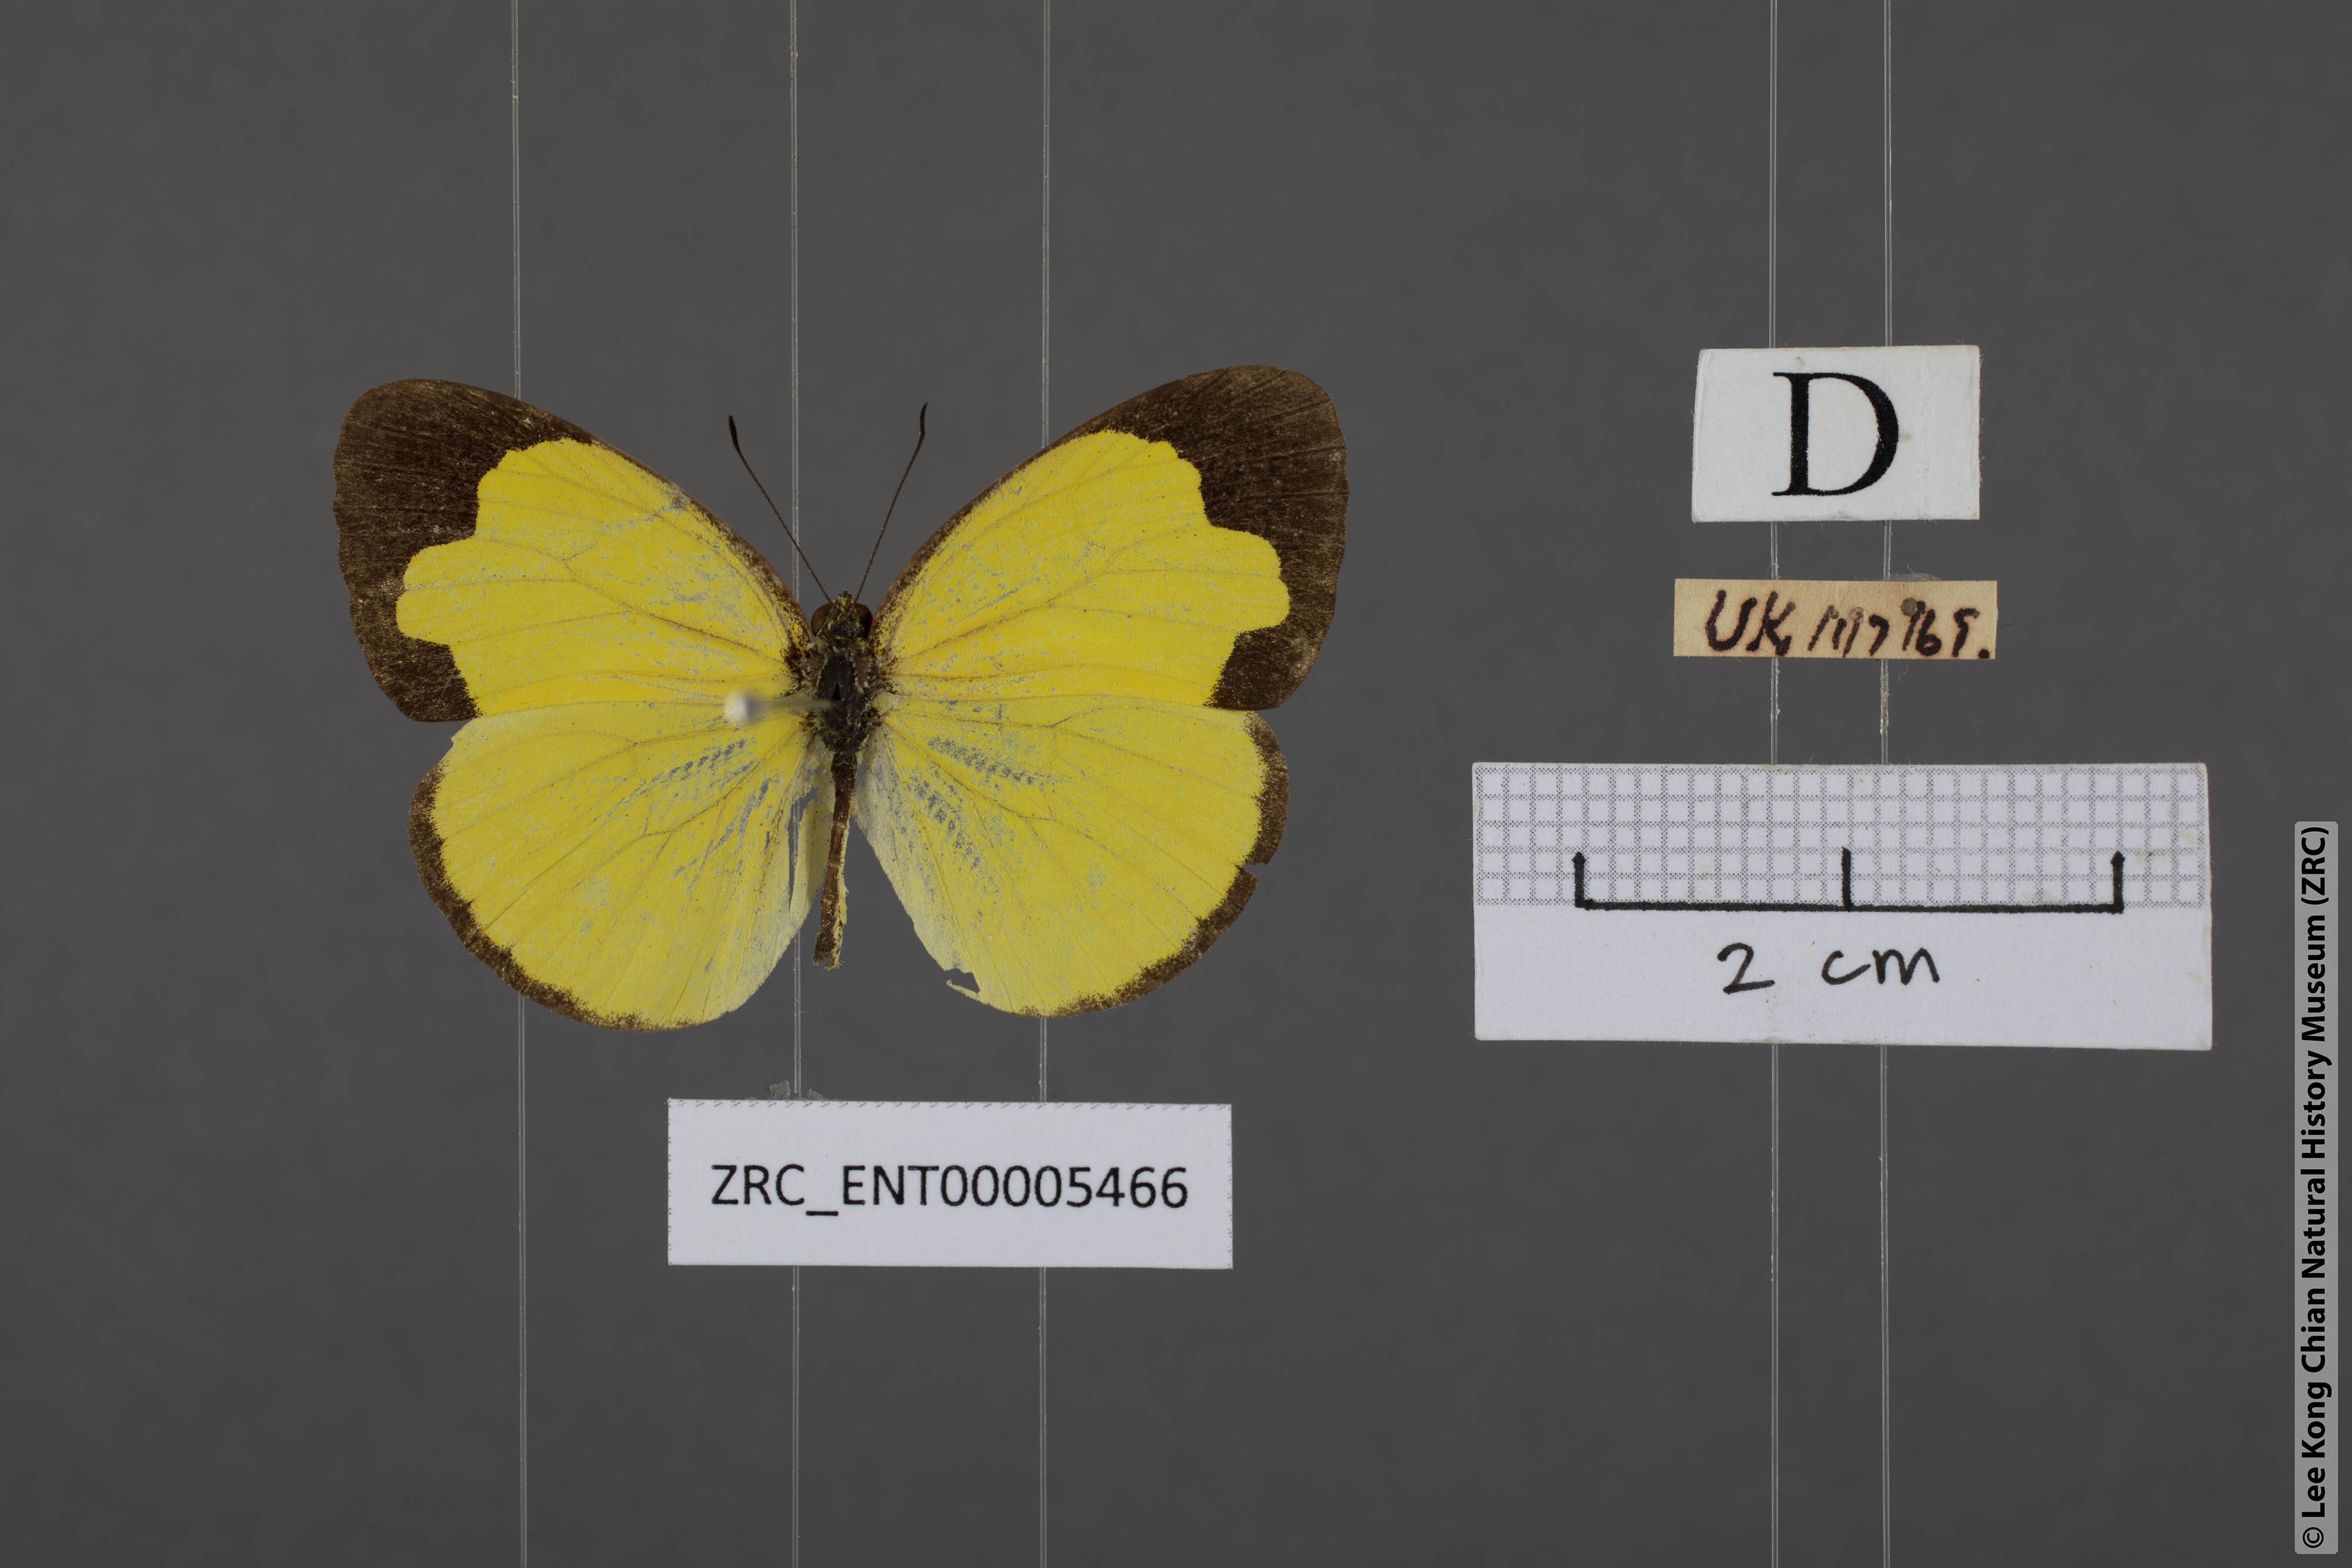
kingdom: Animalia
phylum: Arthropoda
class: Insecta
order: Lepidoptera
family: Pieridae
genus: Eurema
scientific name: Eurema sari
